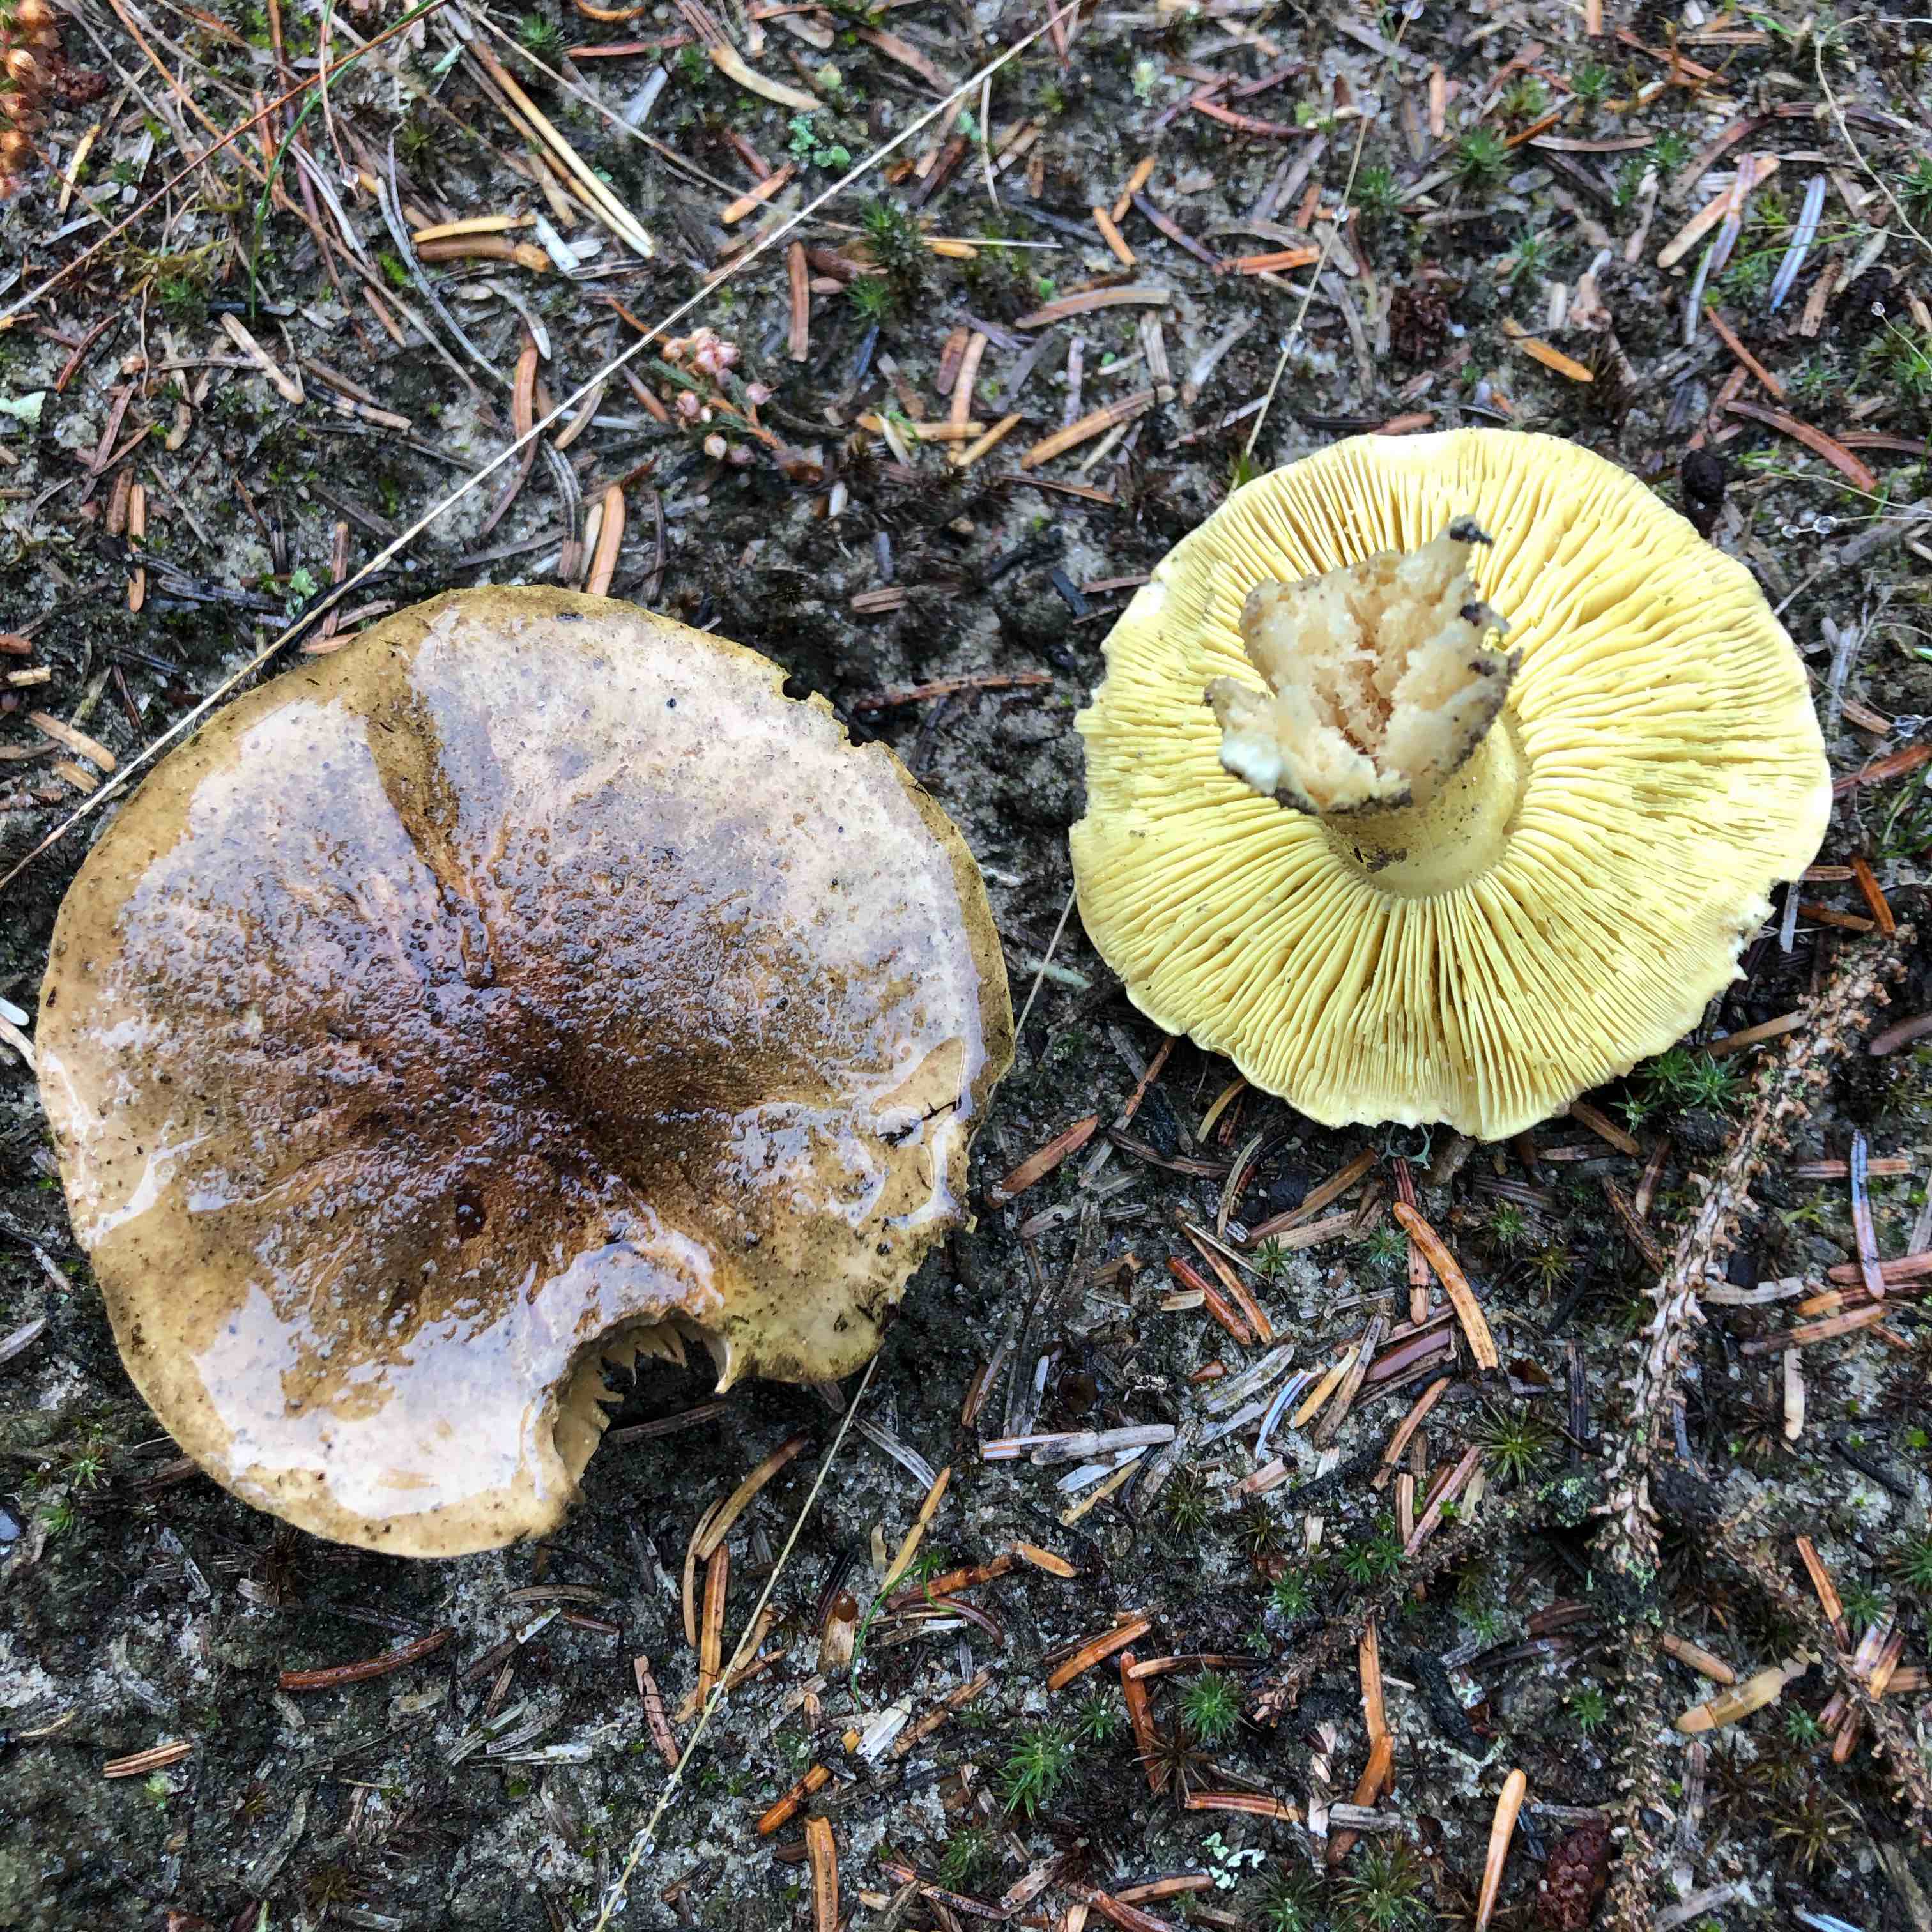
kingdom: Fungi
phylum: Basidiomycota
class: Agaricomycetes
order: Agaricales
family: Tricholomataceae
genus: Tricholoma
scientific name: Tricholoma equestre
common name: ægte ridderhat
